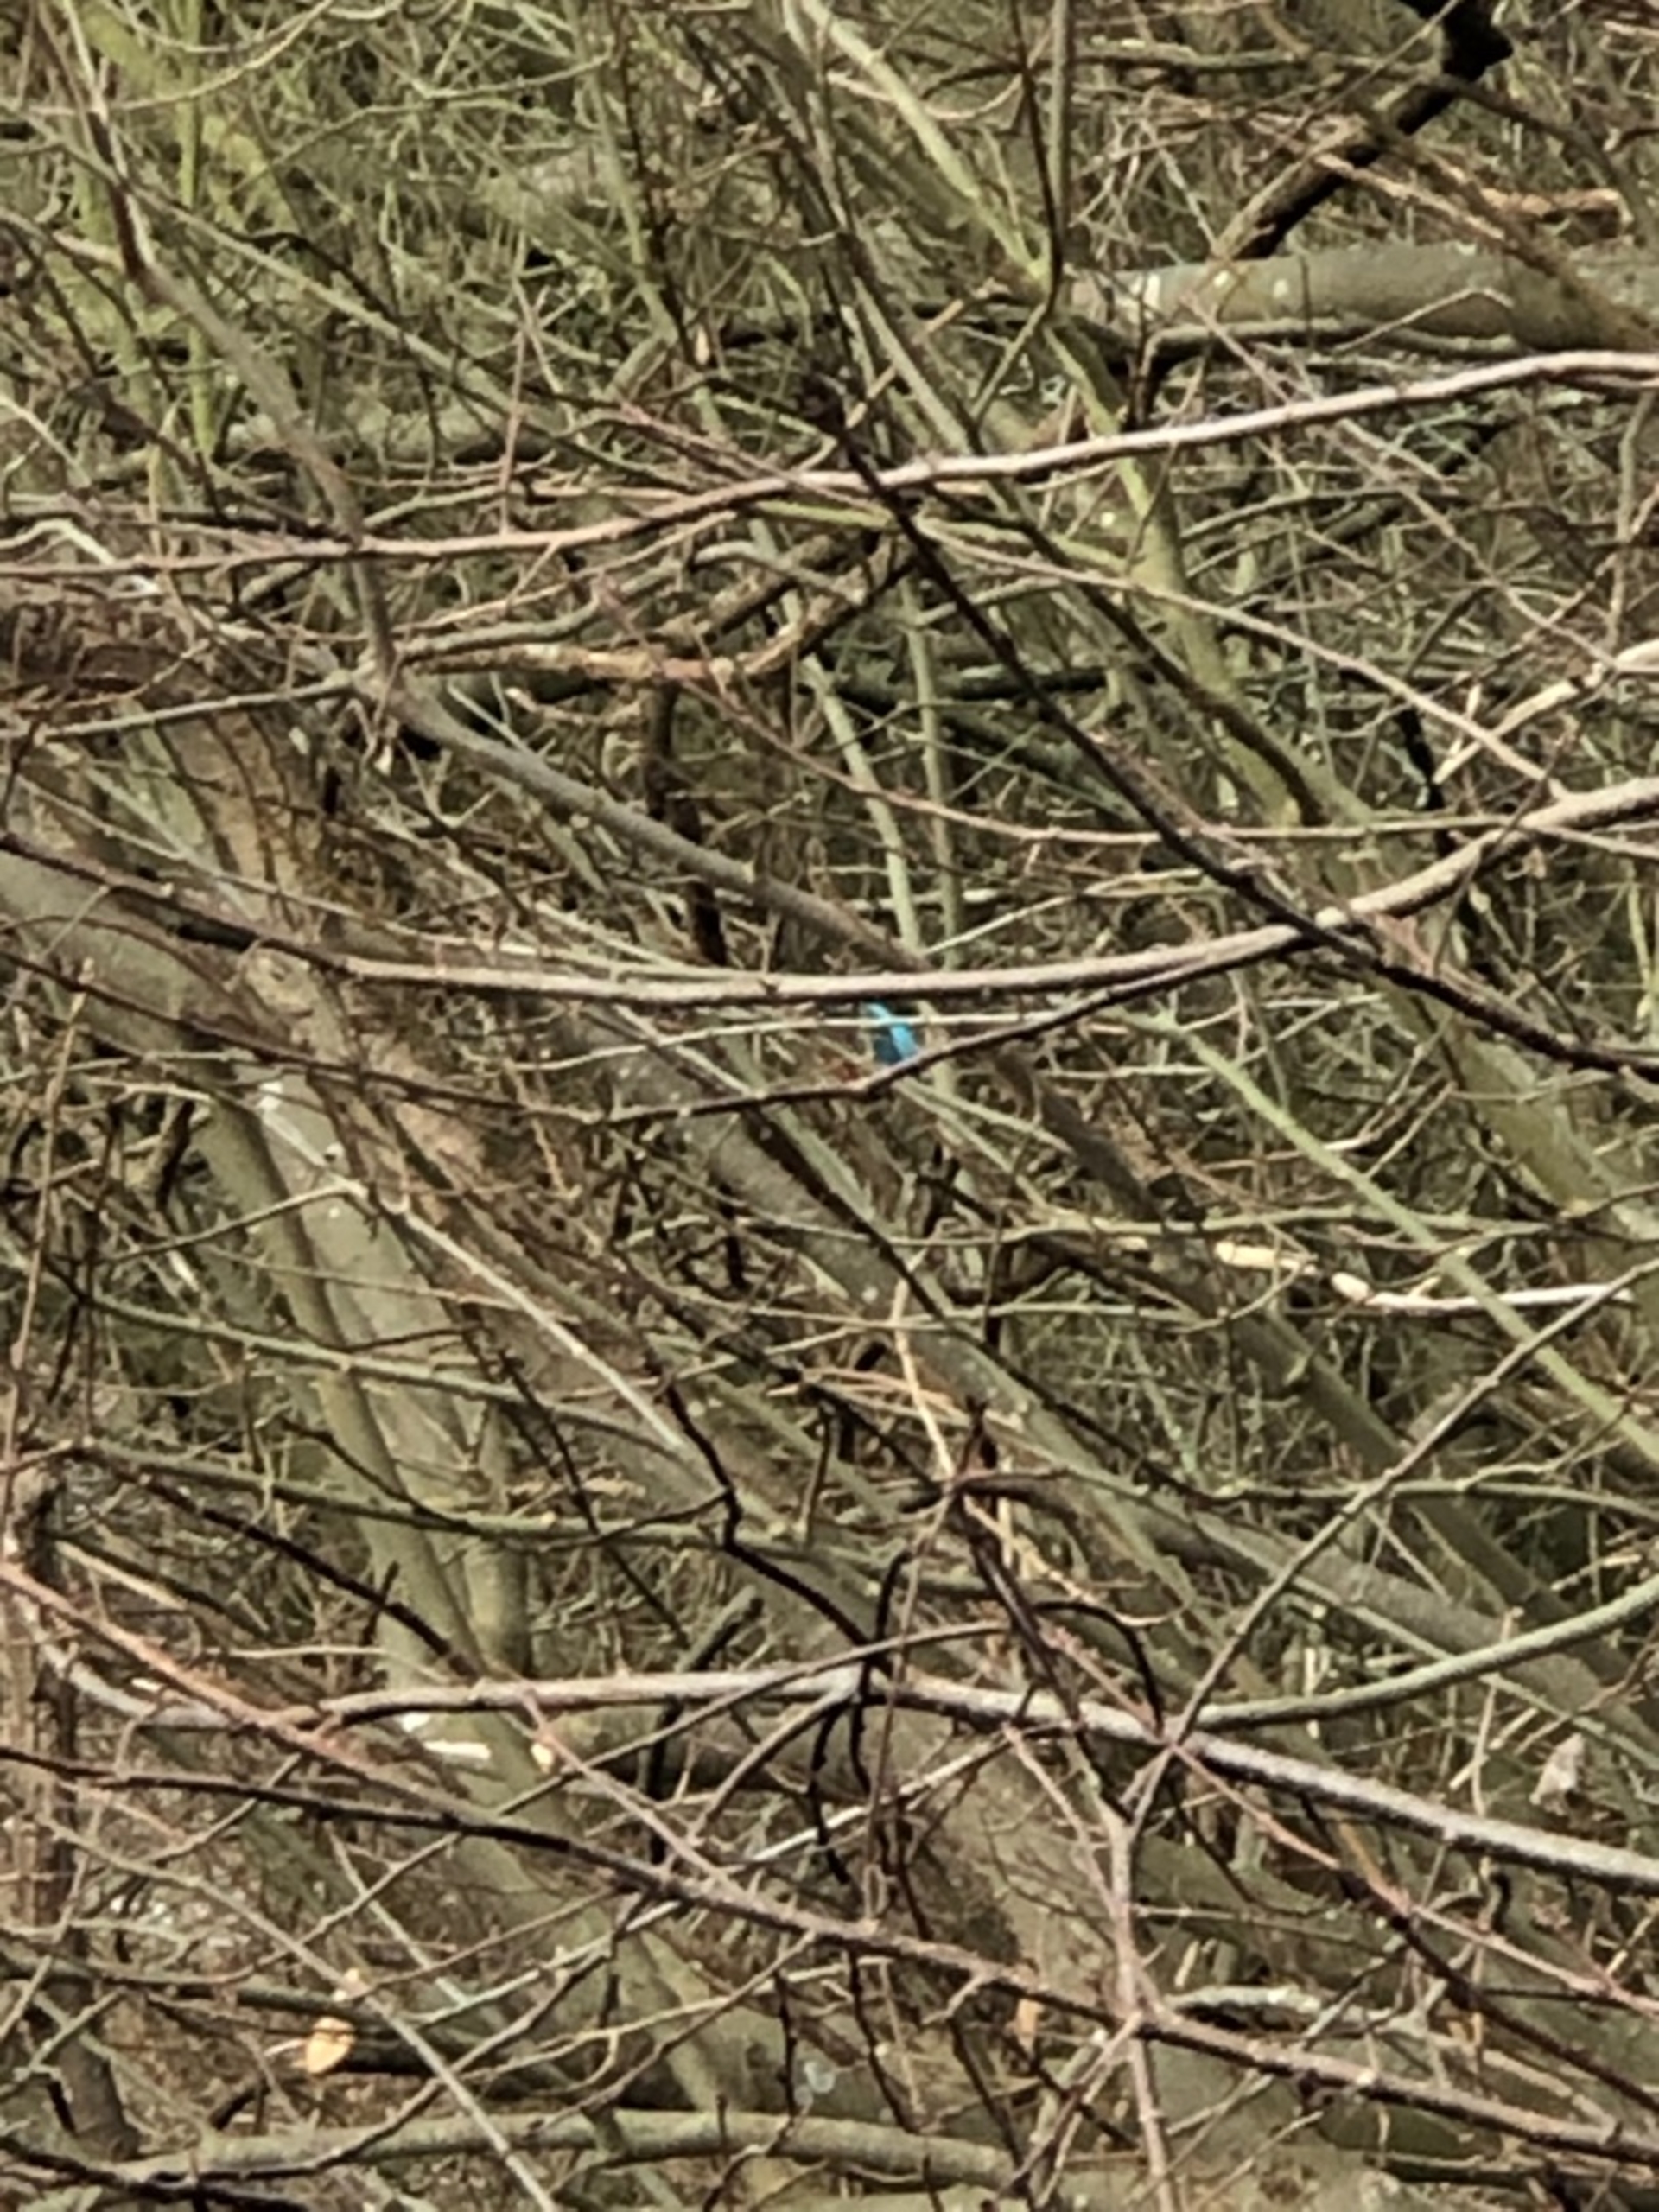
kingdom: Animalia
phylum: Chordata
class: Aves
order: Coraciiformes
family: Alcedinidae
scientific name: Alcedinidae
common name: Isfugle
